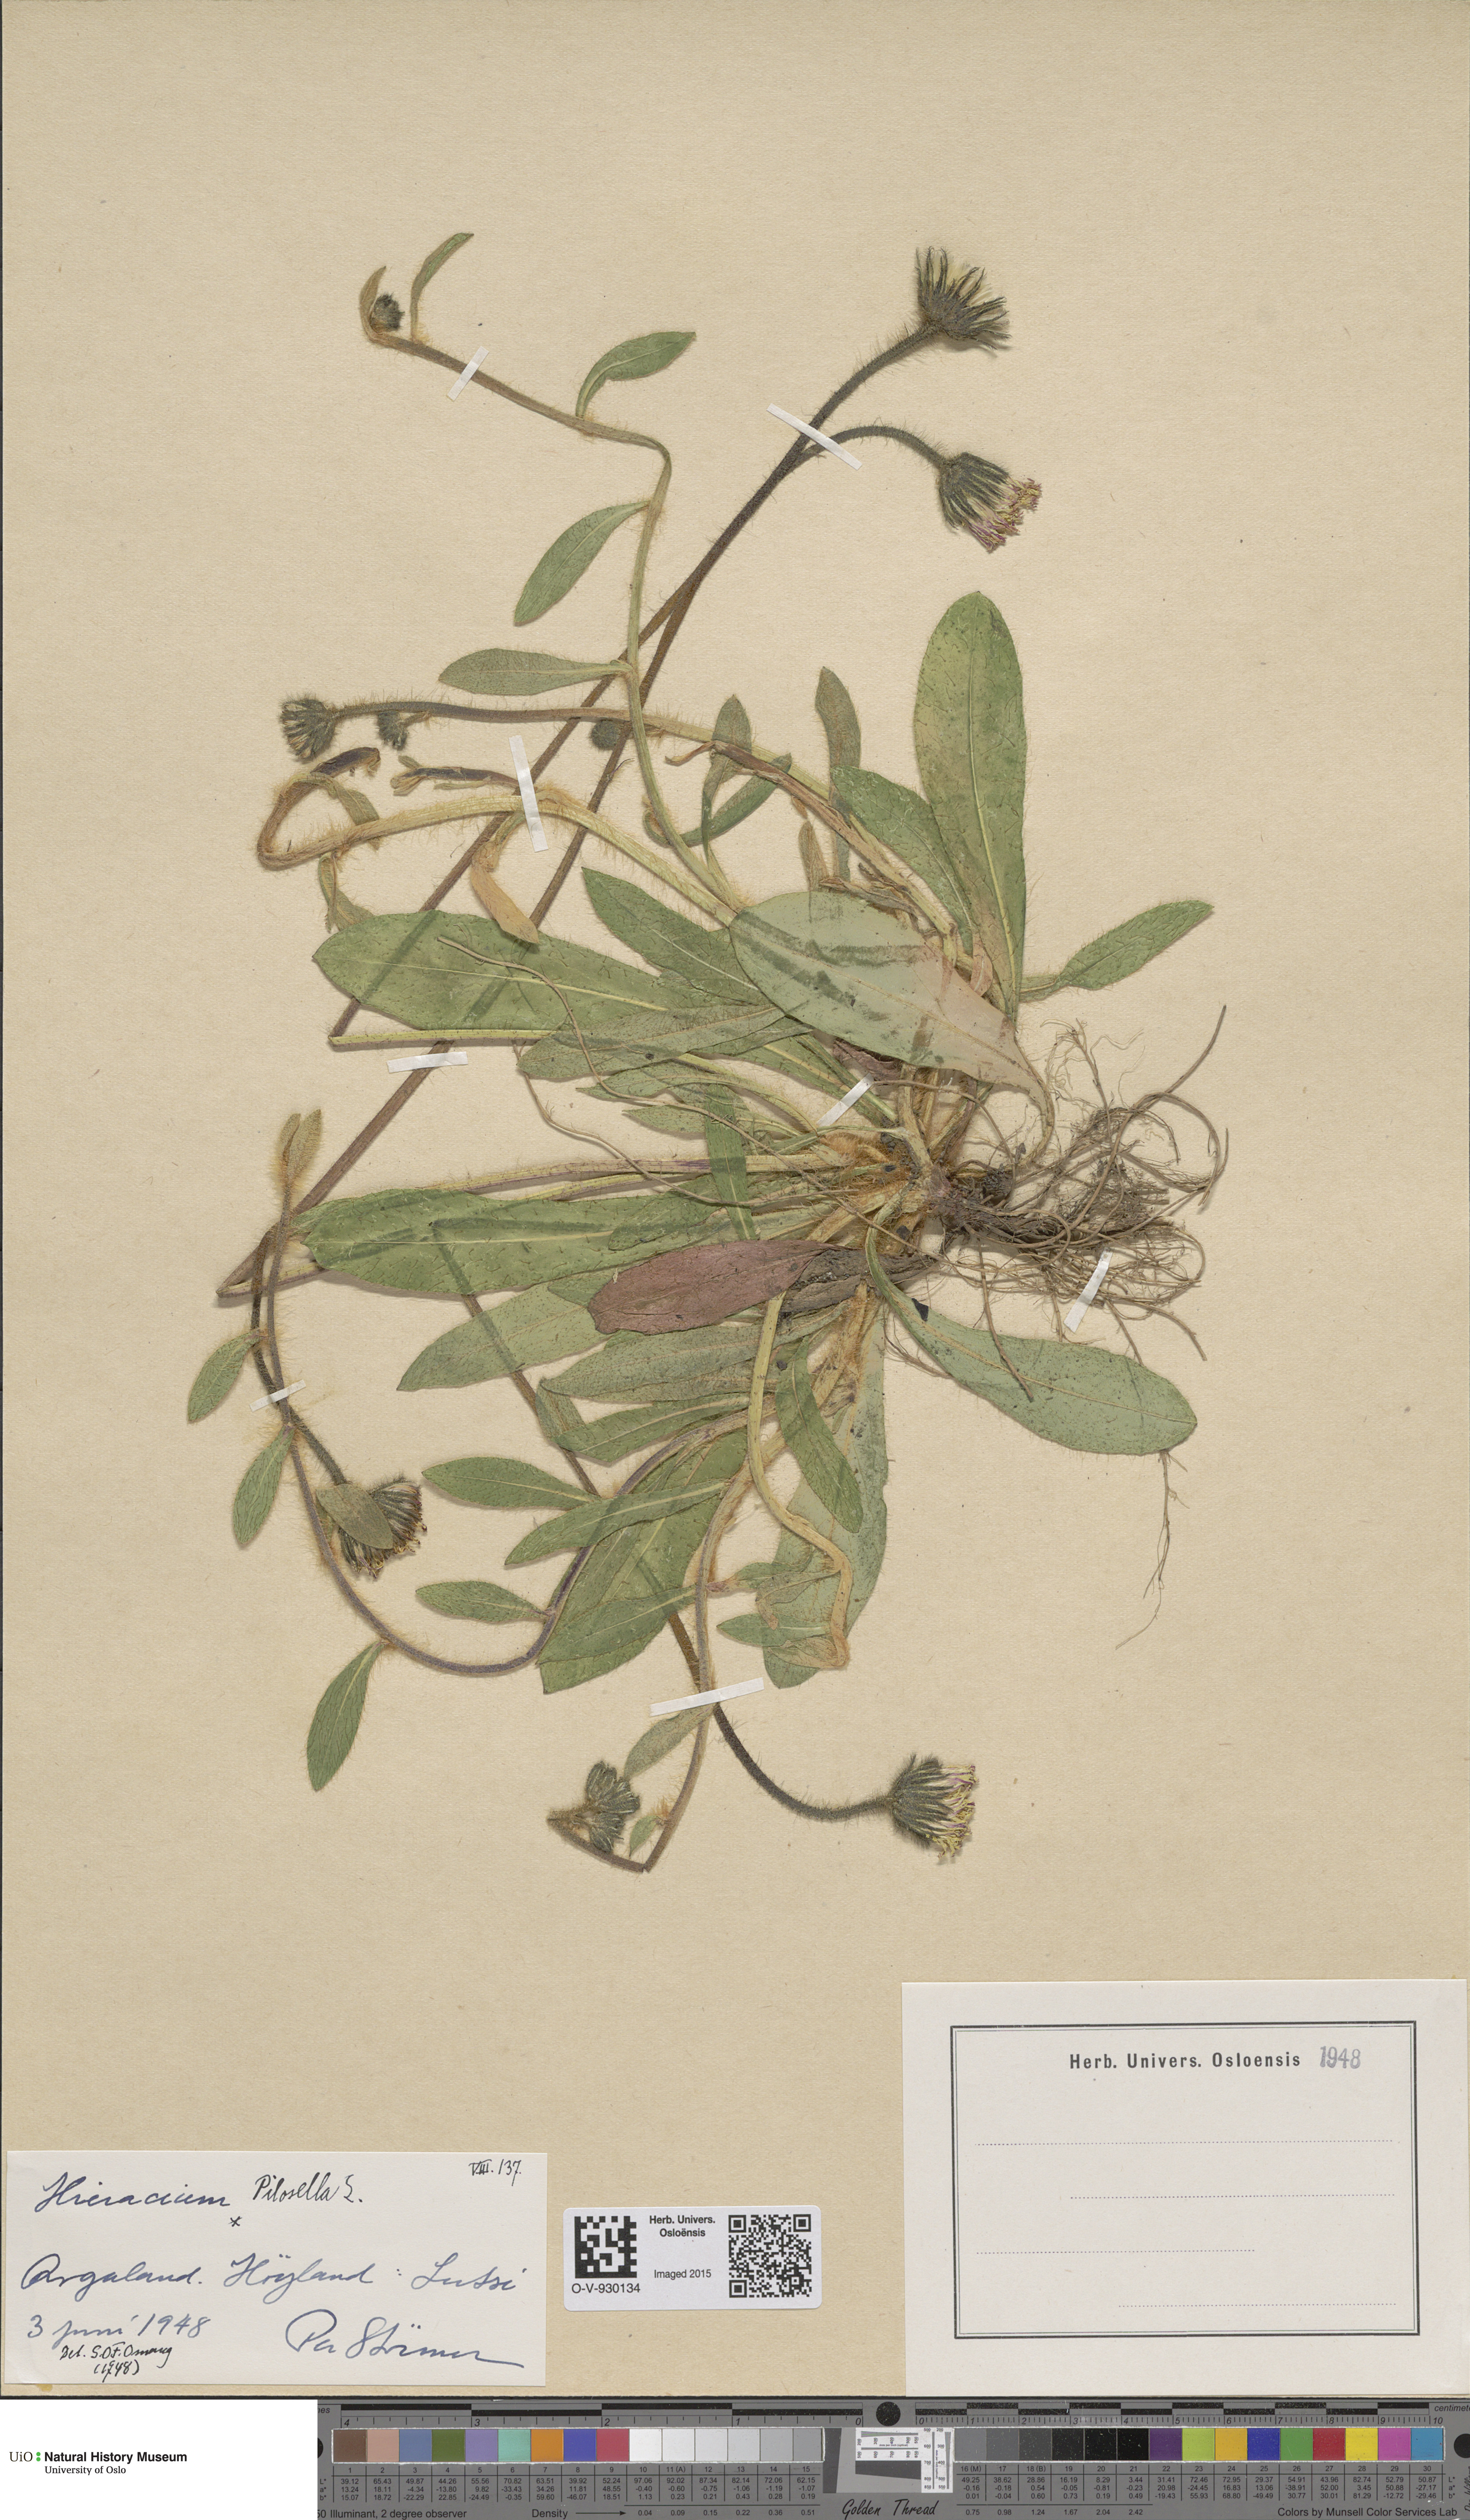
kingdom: Plantae
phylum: Tracheophyta
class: Magnoliopsida
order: Asterales
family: Asteraceae
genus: Pilosella
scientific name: Pilosella officinarum
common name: Mouse-ear hawkweed
